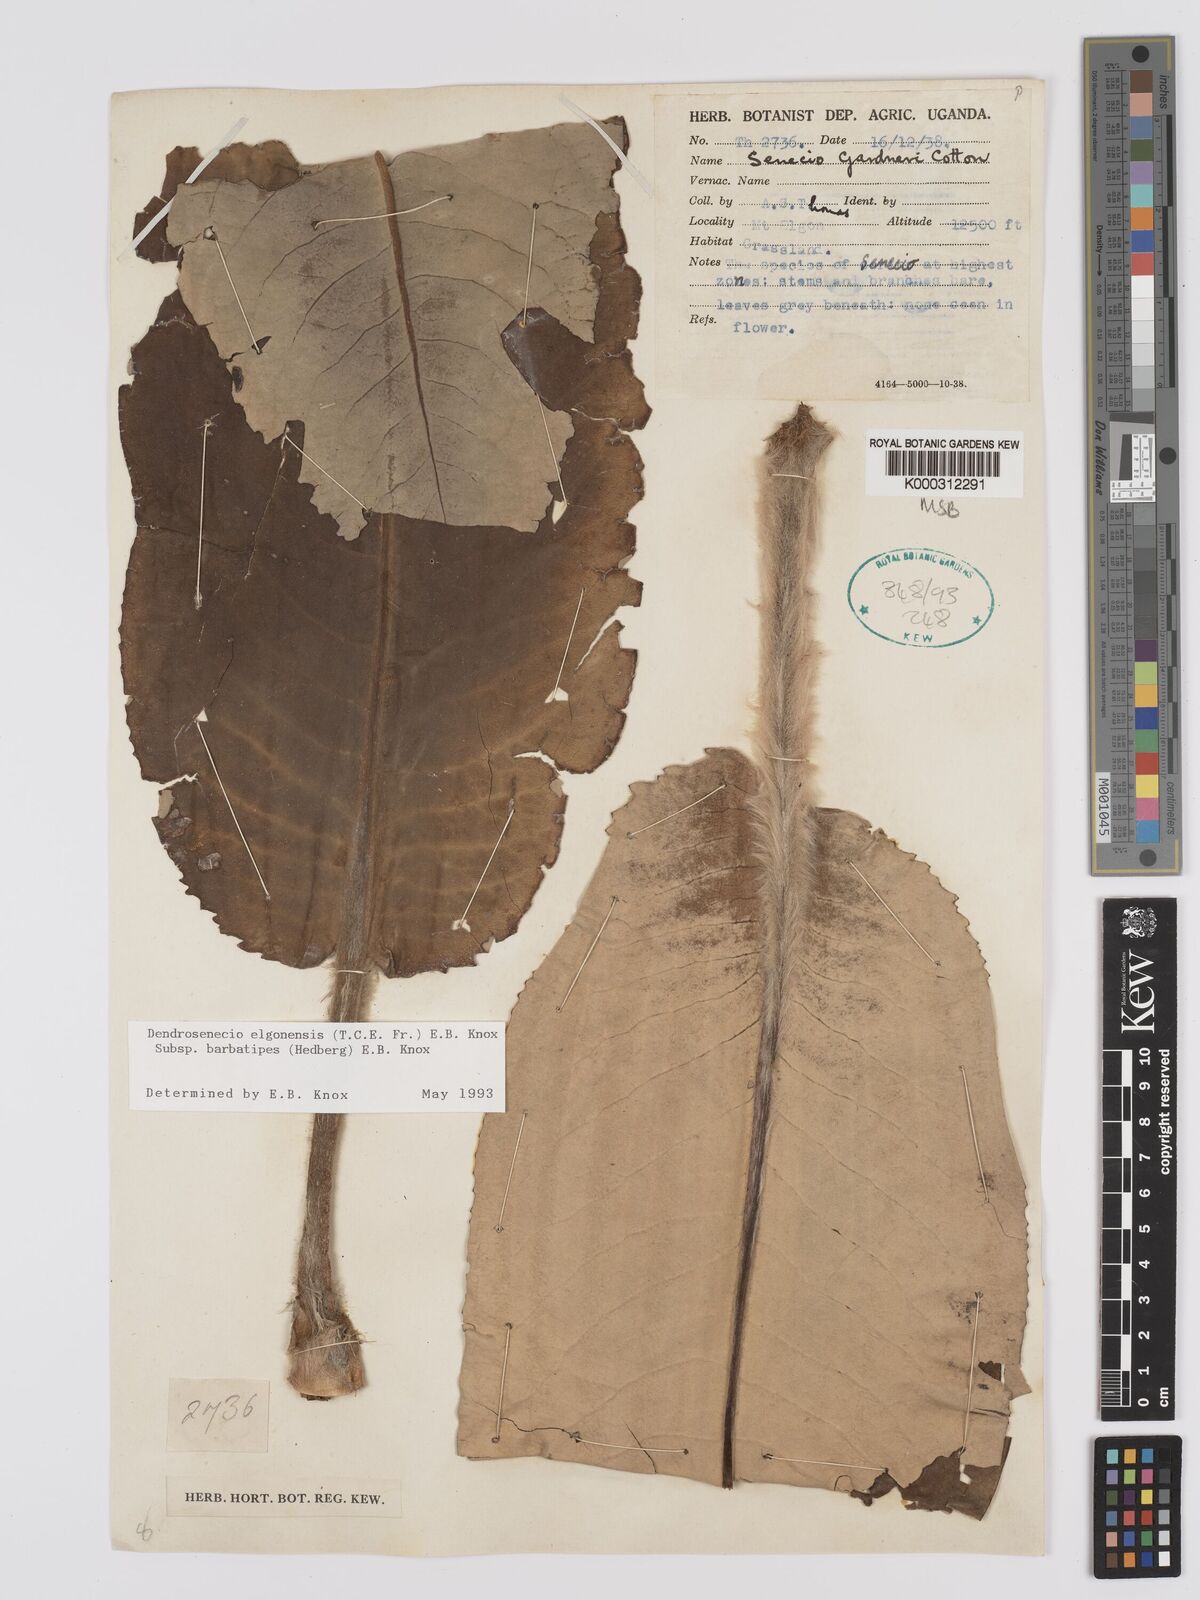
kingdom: Plantae
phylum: Tracheophyta
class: Magnoliopsida
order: Asterales
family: Asteraceae
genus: Dendrosenecio
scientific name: Dendrosenecio elgonensis
